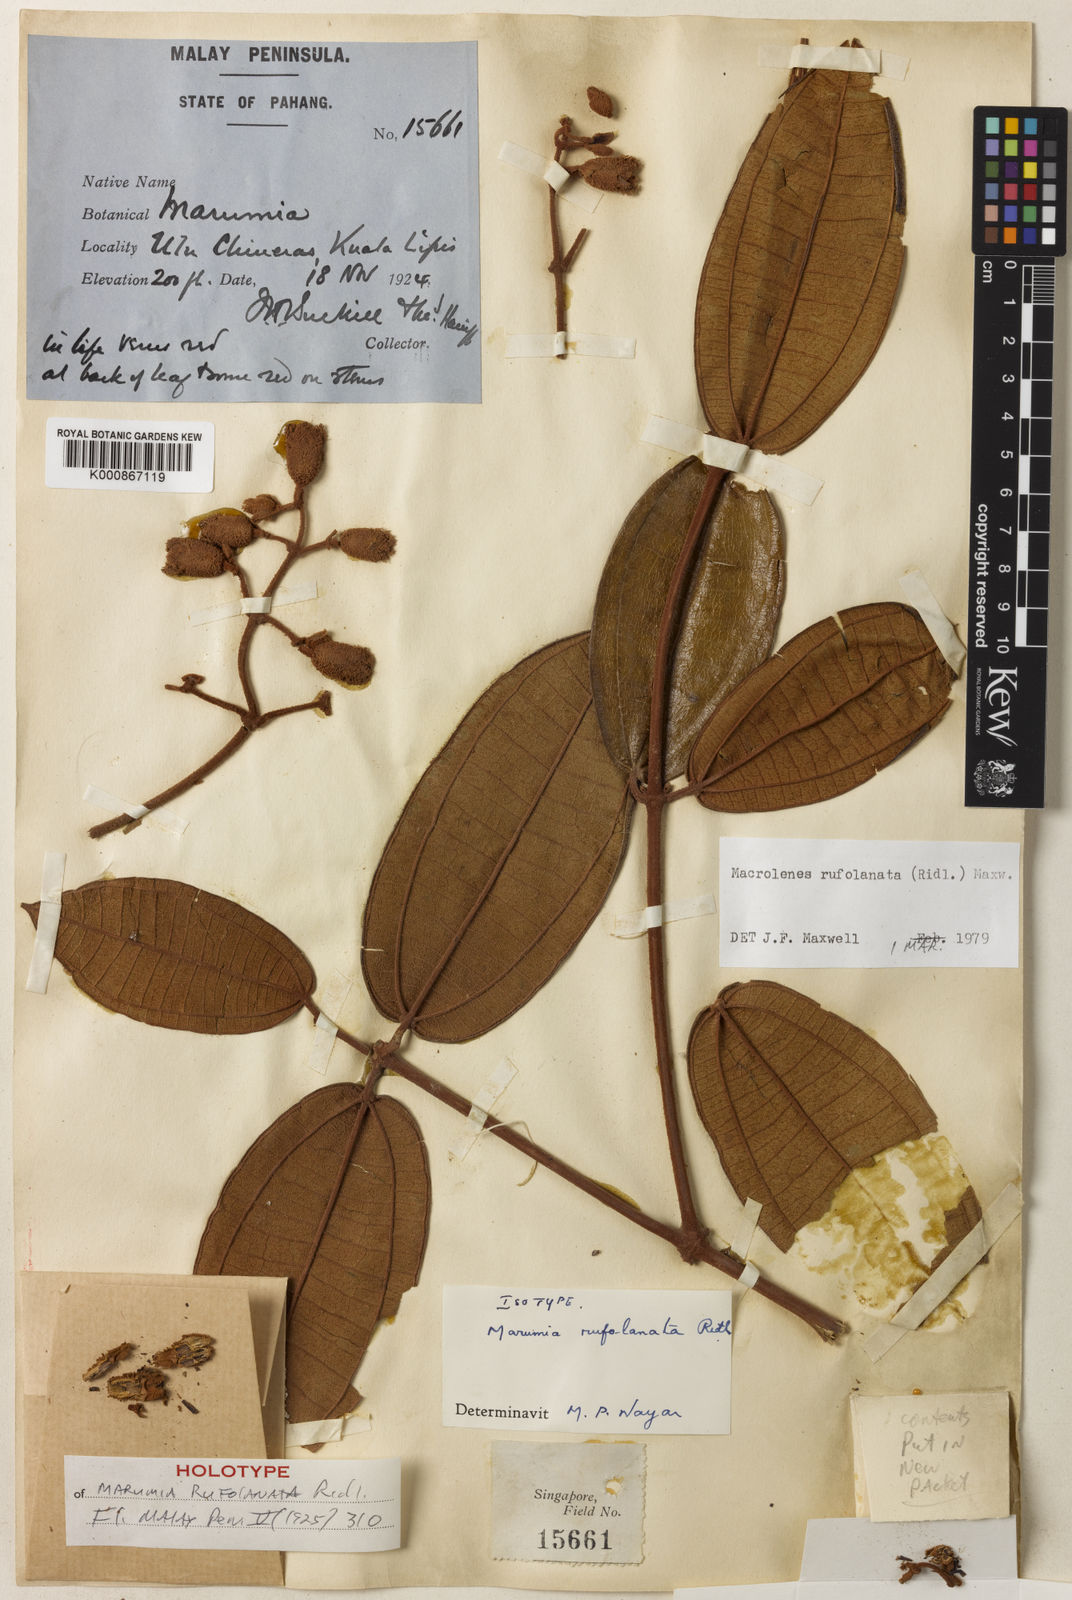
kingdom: Plantae
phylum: Tracheophyta
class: Magnoliopsida
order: Myrtales
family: Melastomataceae
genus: Macrolenes
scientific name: Macrolenes rufolanata
